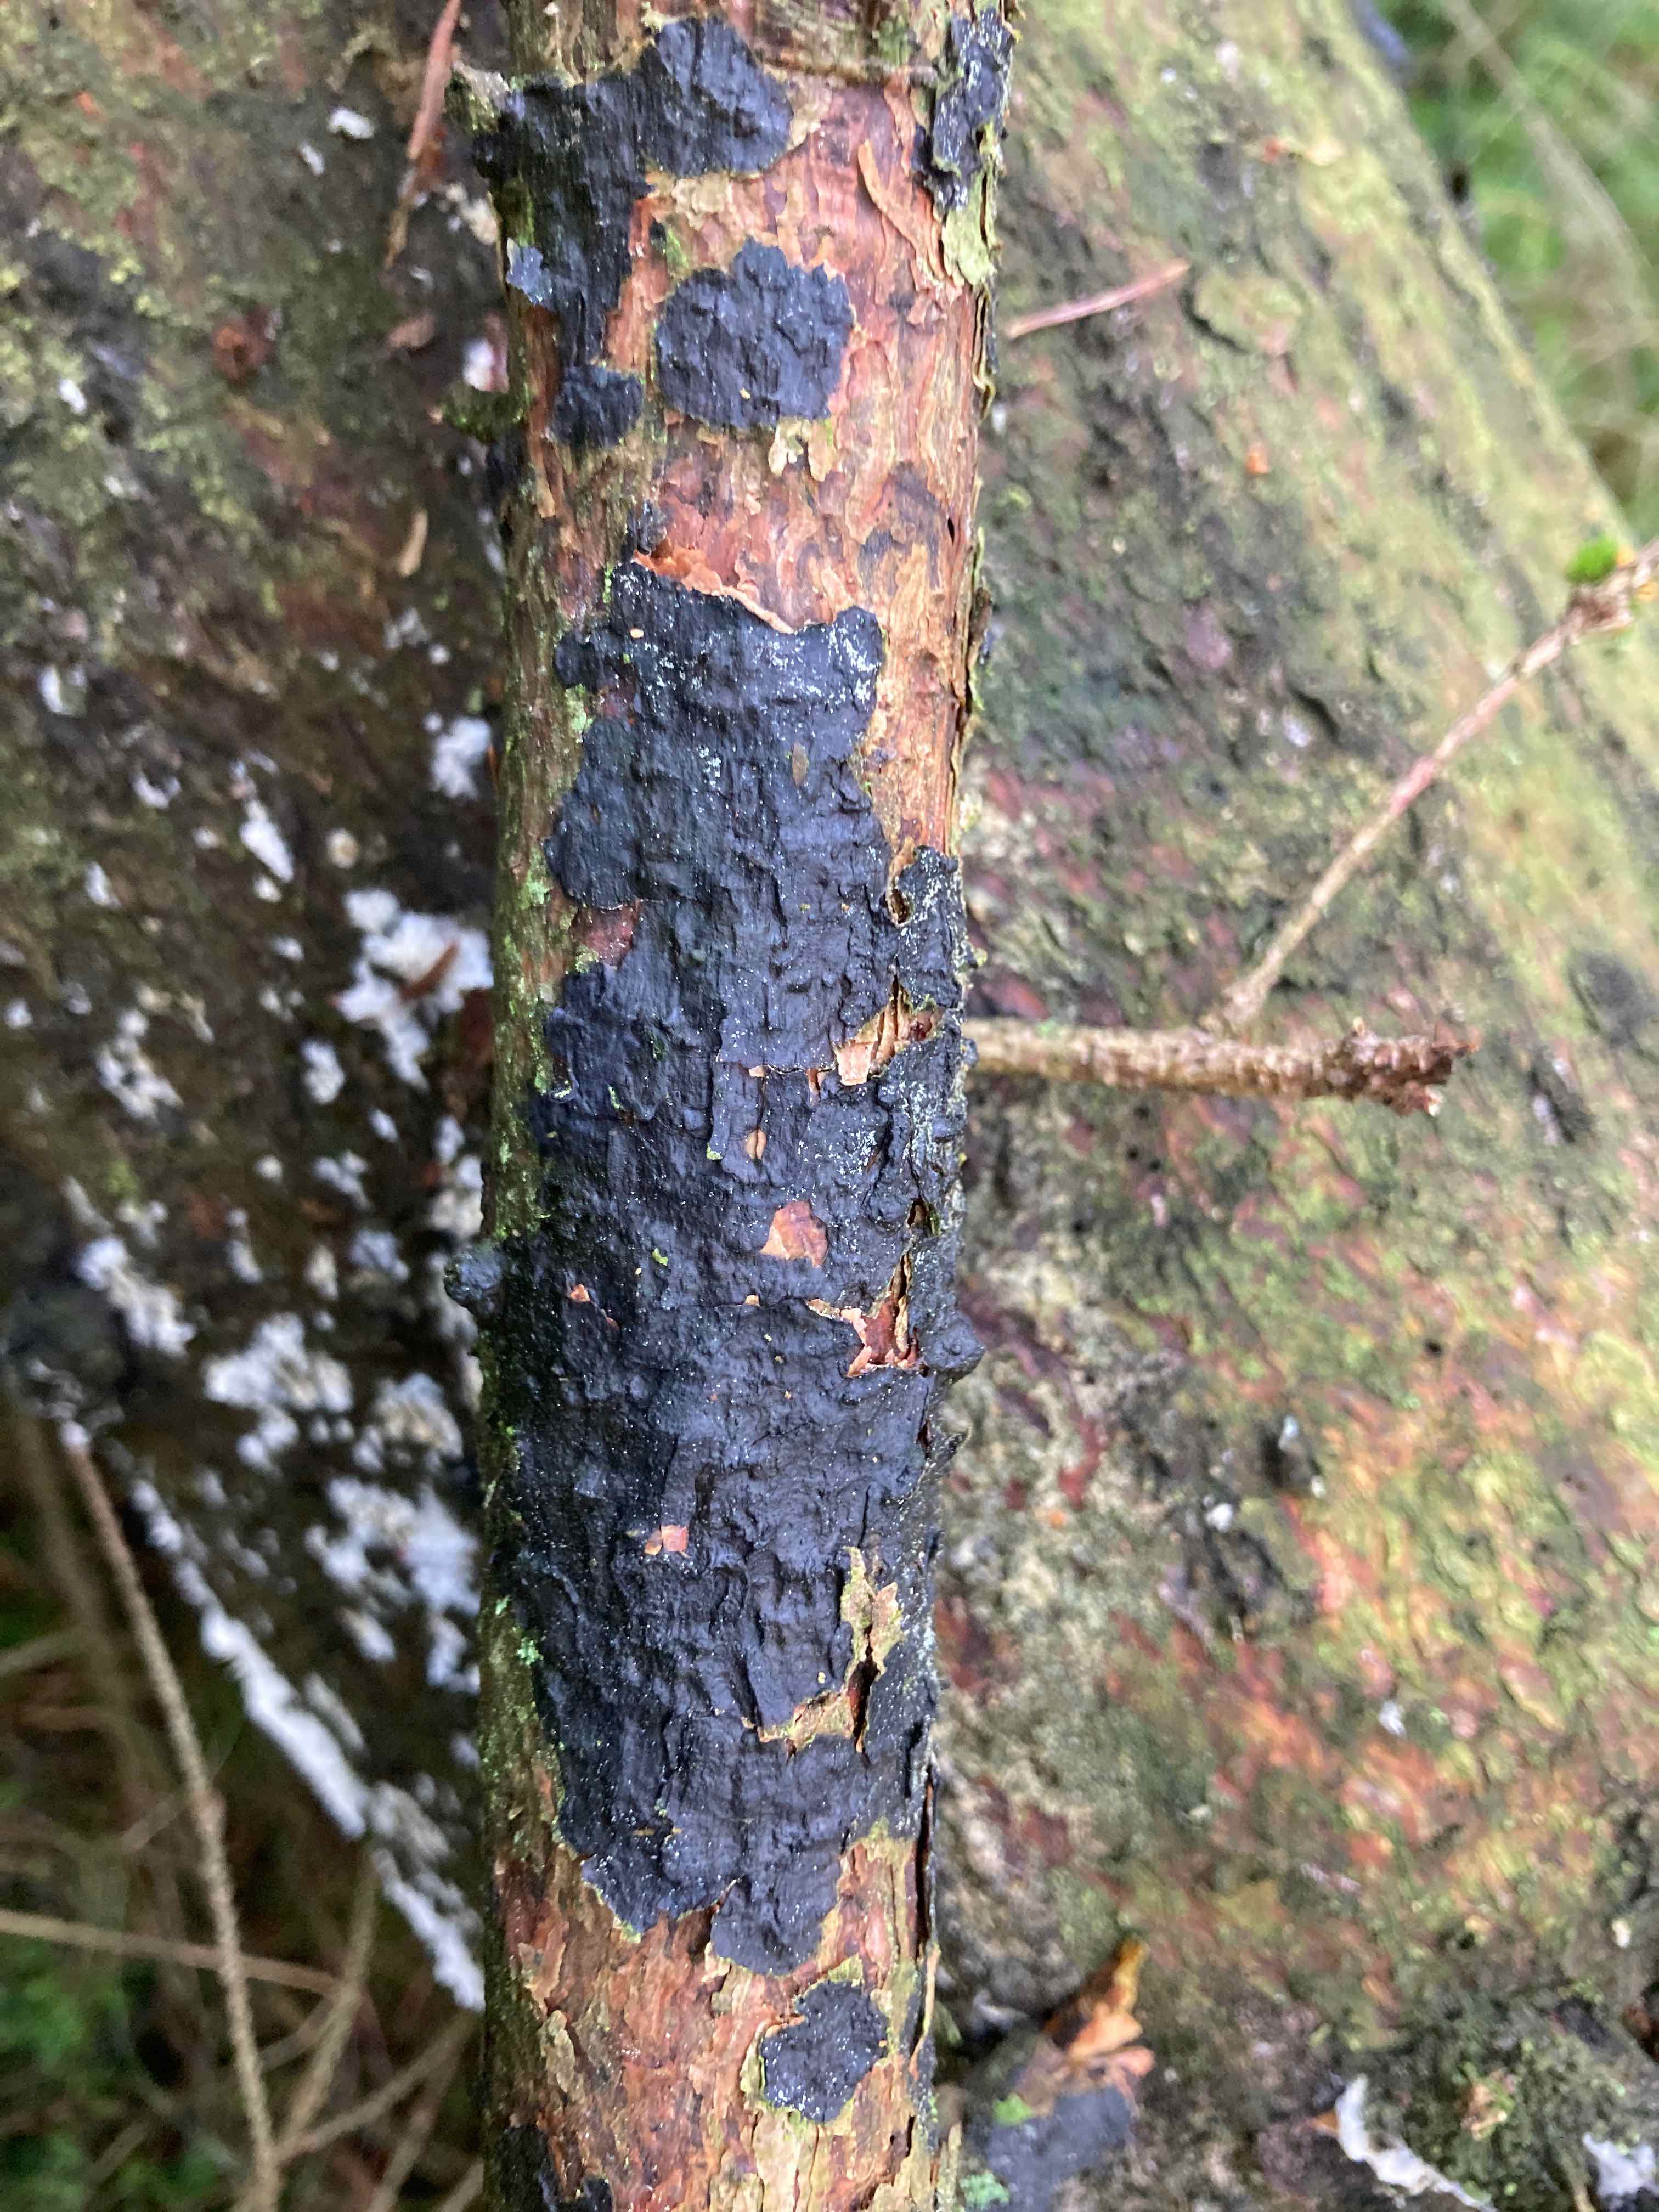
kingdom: Fungi
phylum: Basidiomycota
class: Agaricomycetes
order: Auriculariales
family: Auriculariaceae
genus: Exidia
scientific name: Exidia pithya
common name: gran-bævretop
